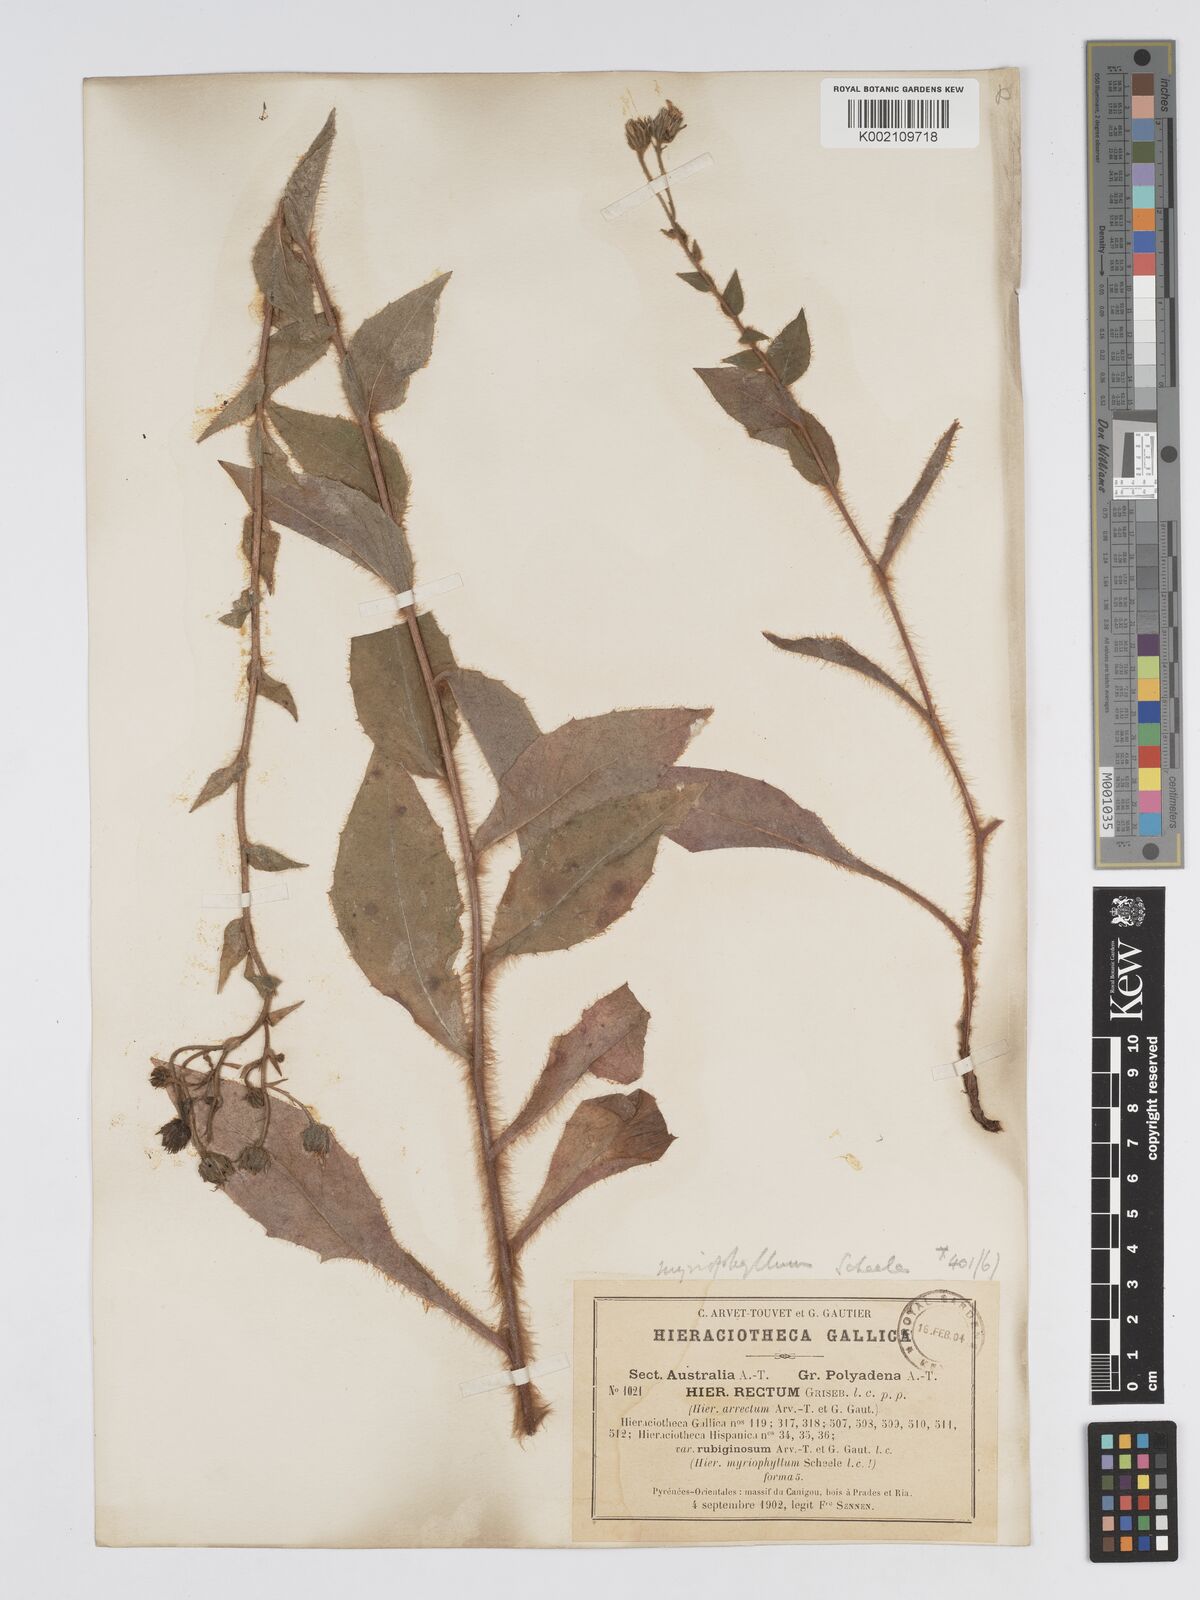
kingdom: Plantae
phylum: Tracheophyta
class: Magnoliopsida
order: Asterales
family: Asteraceae
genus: Hieracium
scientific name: Hieracium patens
